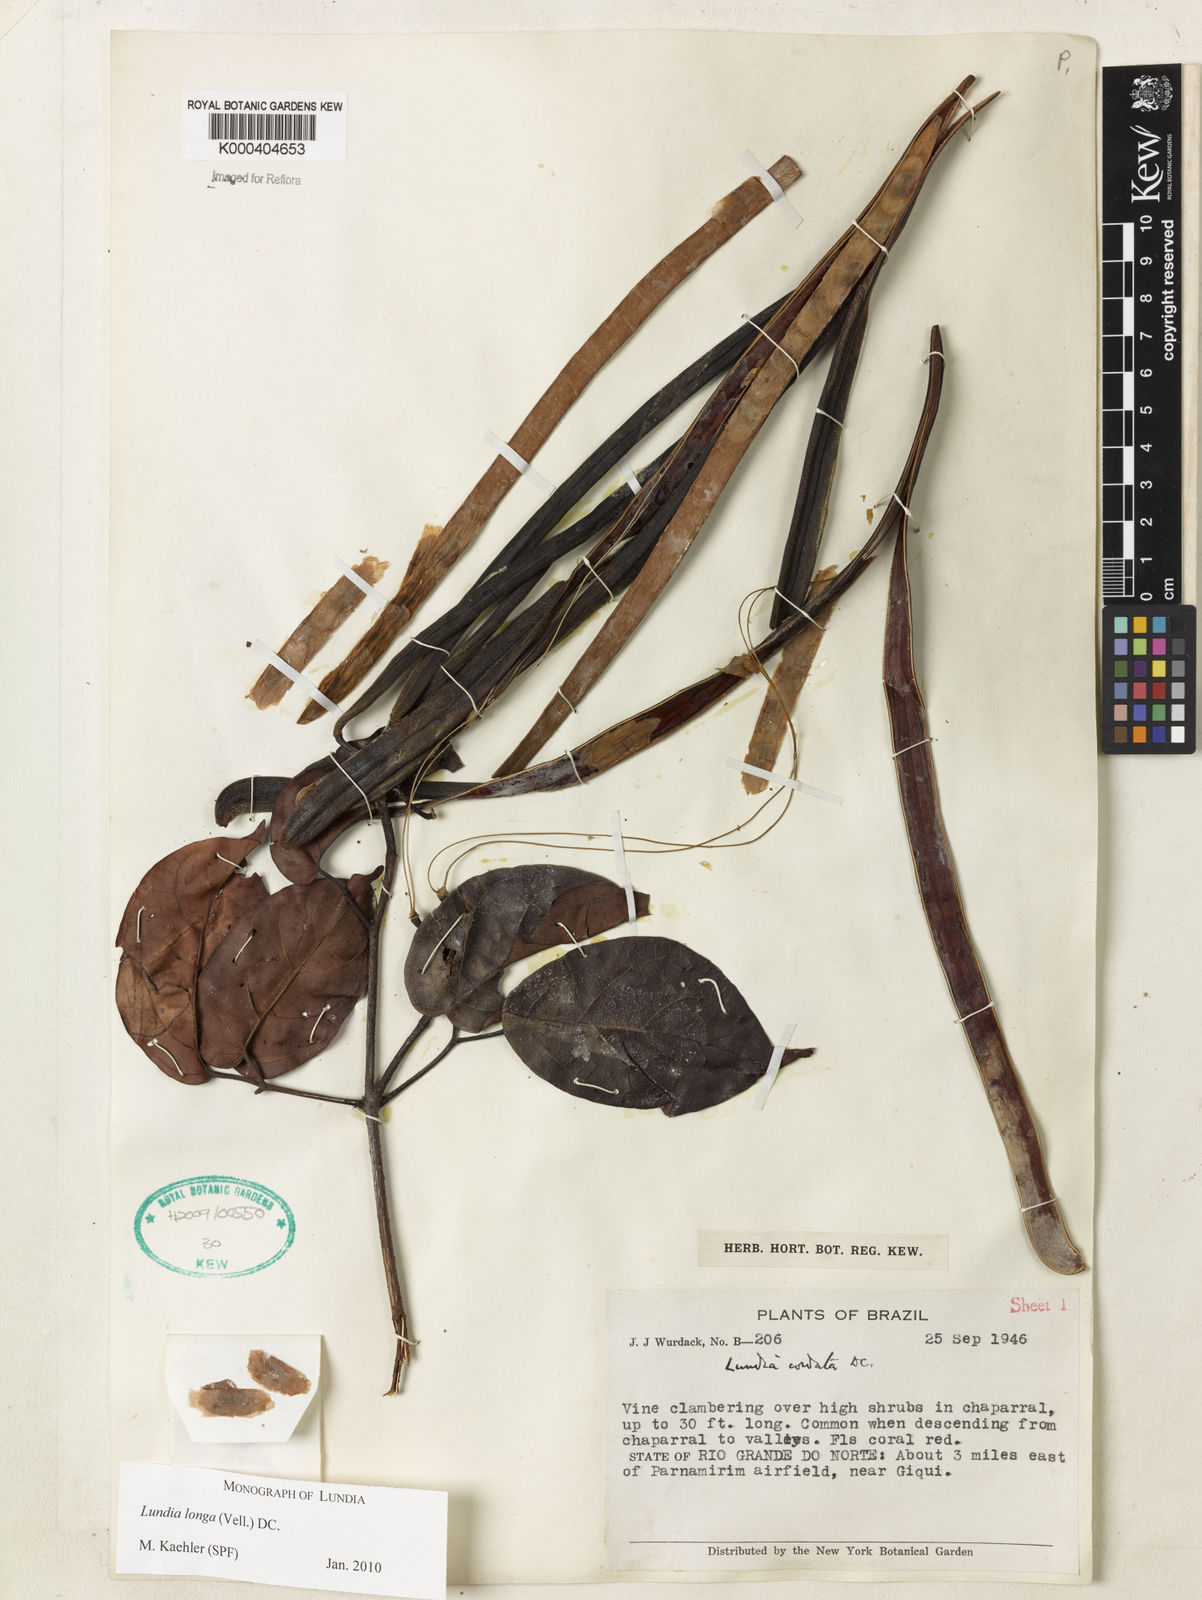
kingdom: Plantae
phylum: Tracheophyta
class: Magnoliopsida
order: Lamiales
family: Bignoniaceae
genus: Lundia
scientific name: Lundia longa
